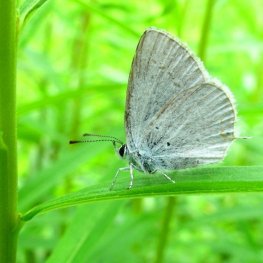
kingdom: Animalia
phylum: Arthropoda
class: Insecta
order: Lepidoptera
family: Lycaenidae
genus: Elkalyce
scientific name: Elkalyce amyntula
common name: Western Tailed-Blue
